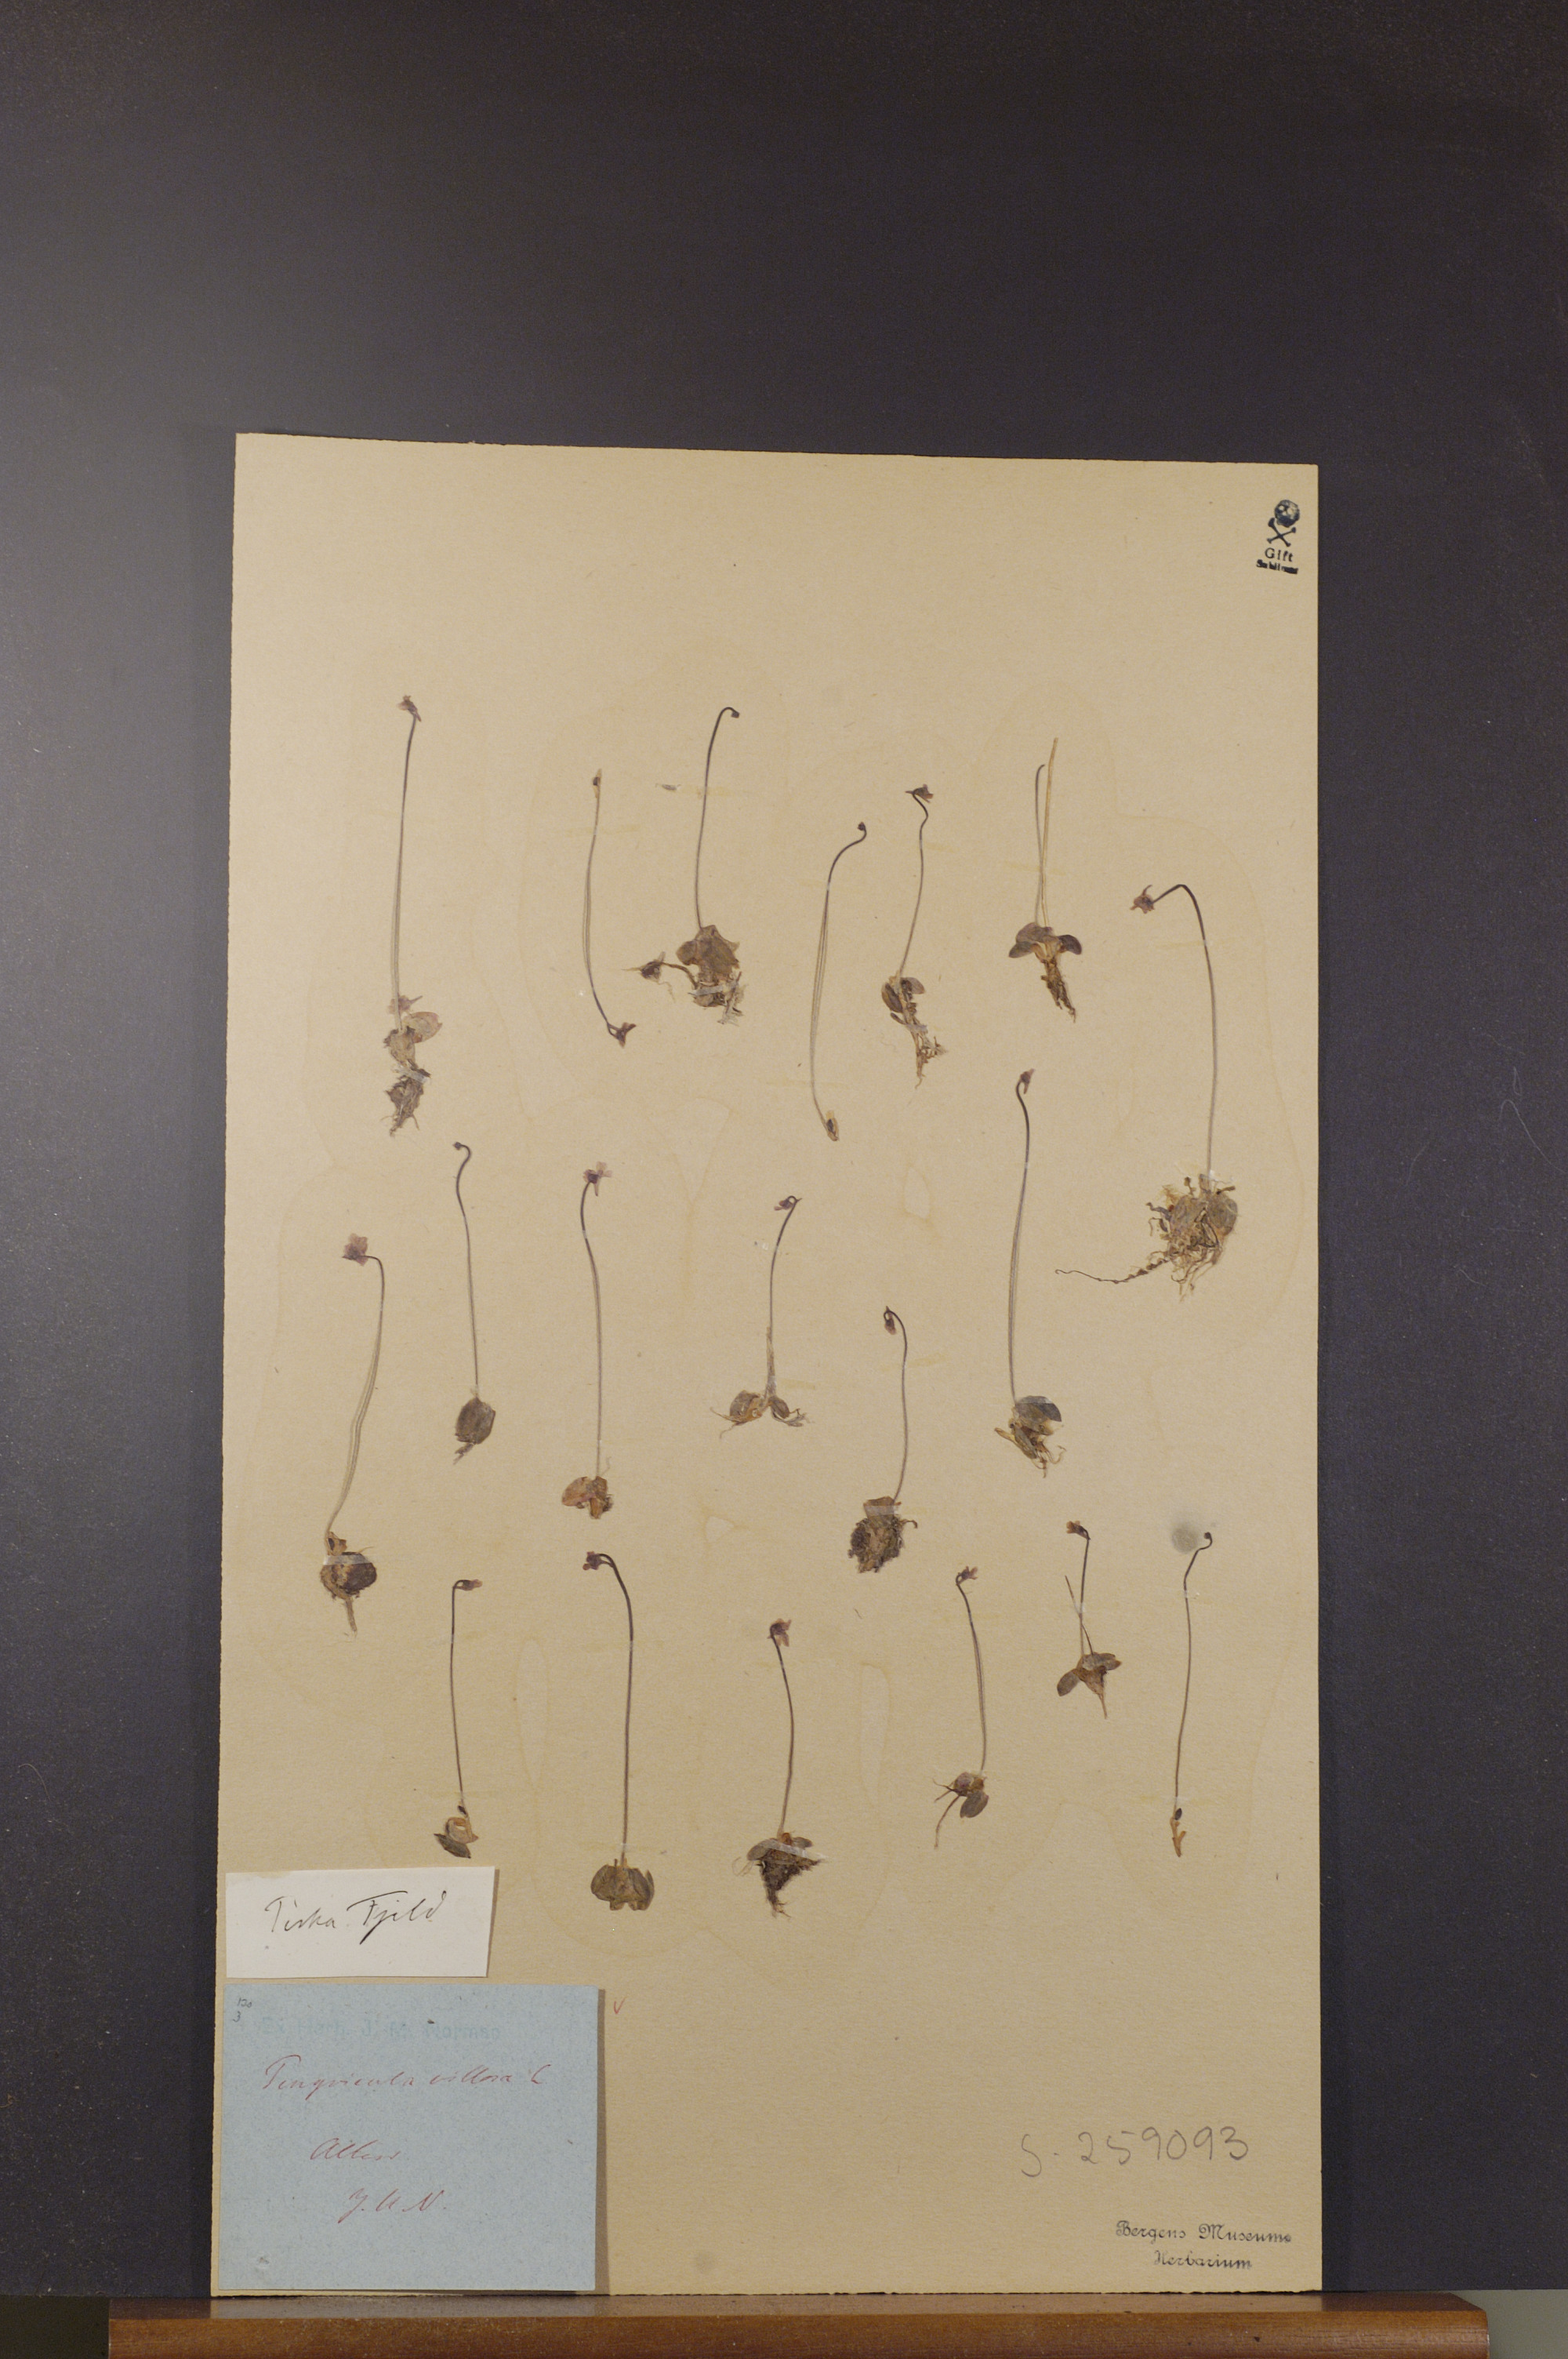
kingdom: Plantae
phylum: Tracheophyta
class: Magnoliopsida
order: Lamiales
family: Lentibulariaceae
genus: Pinguicula
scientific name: Pinguicula villosa
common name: Hairy butterwort
